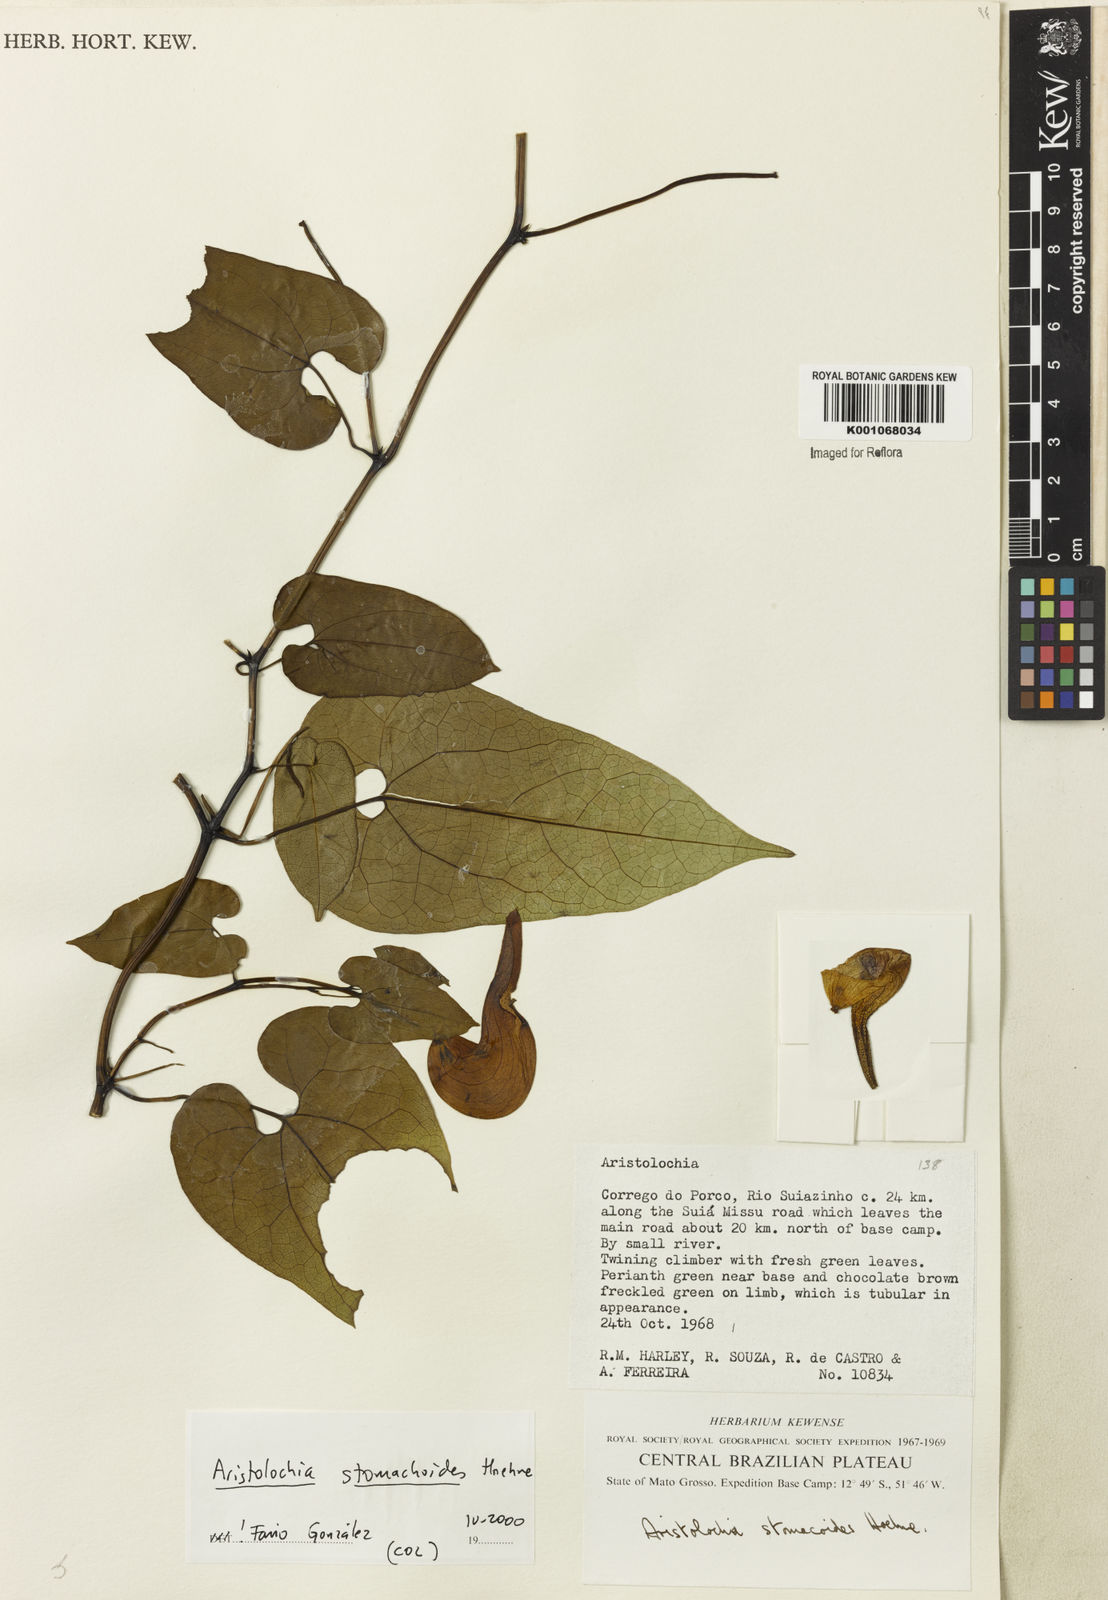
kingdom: Plantae
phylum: Tracheophyta
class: Magnoliopsida
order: Piperales
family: Aristolochiaceae
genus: Aristolochia
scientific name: Aristolochia
